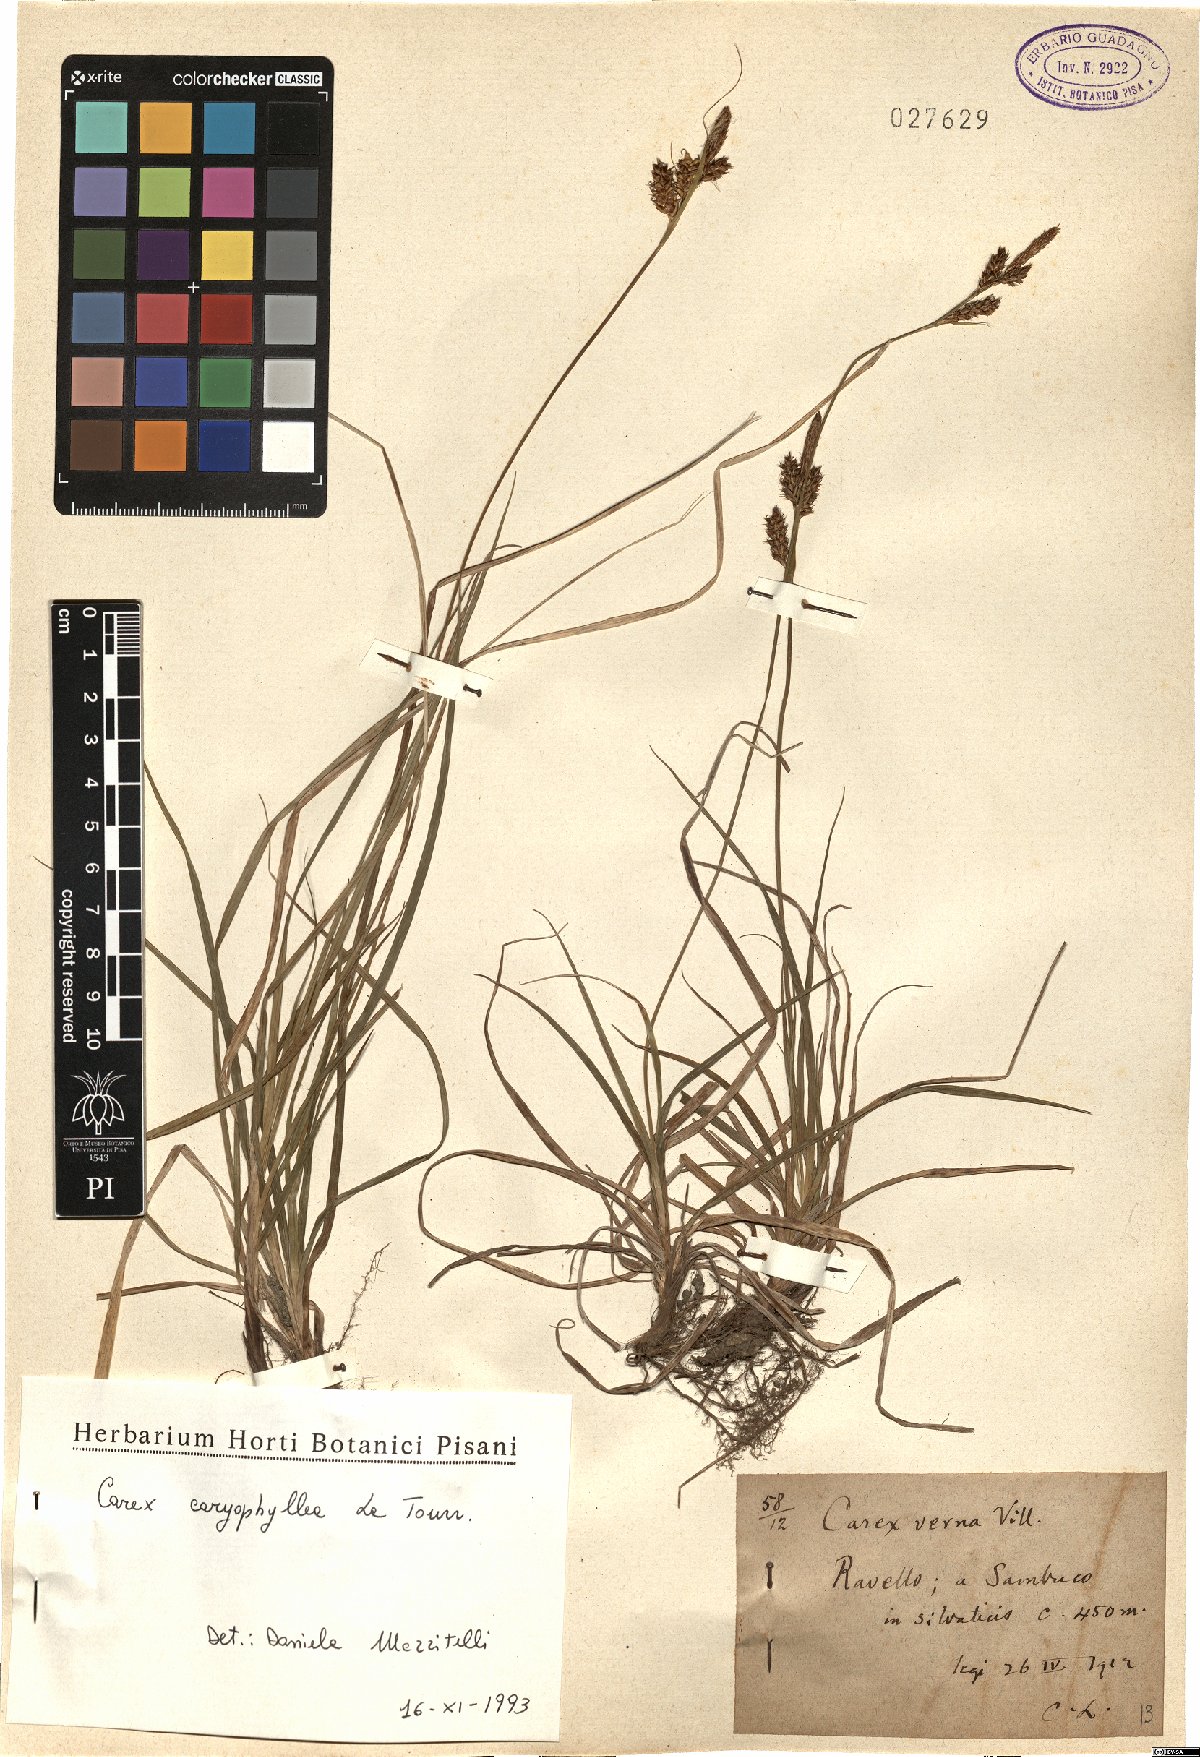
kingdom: Plantae
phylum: Tracheophyta
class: Liliopsida
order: Poales
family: Cyperaceae
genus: Carex
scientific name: Carex caryophyllea
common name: Spring sedge
